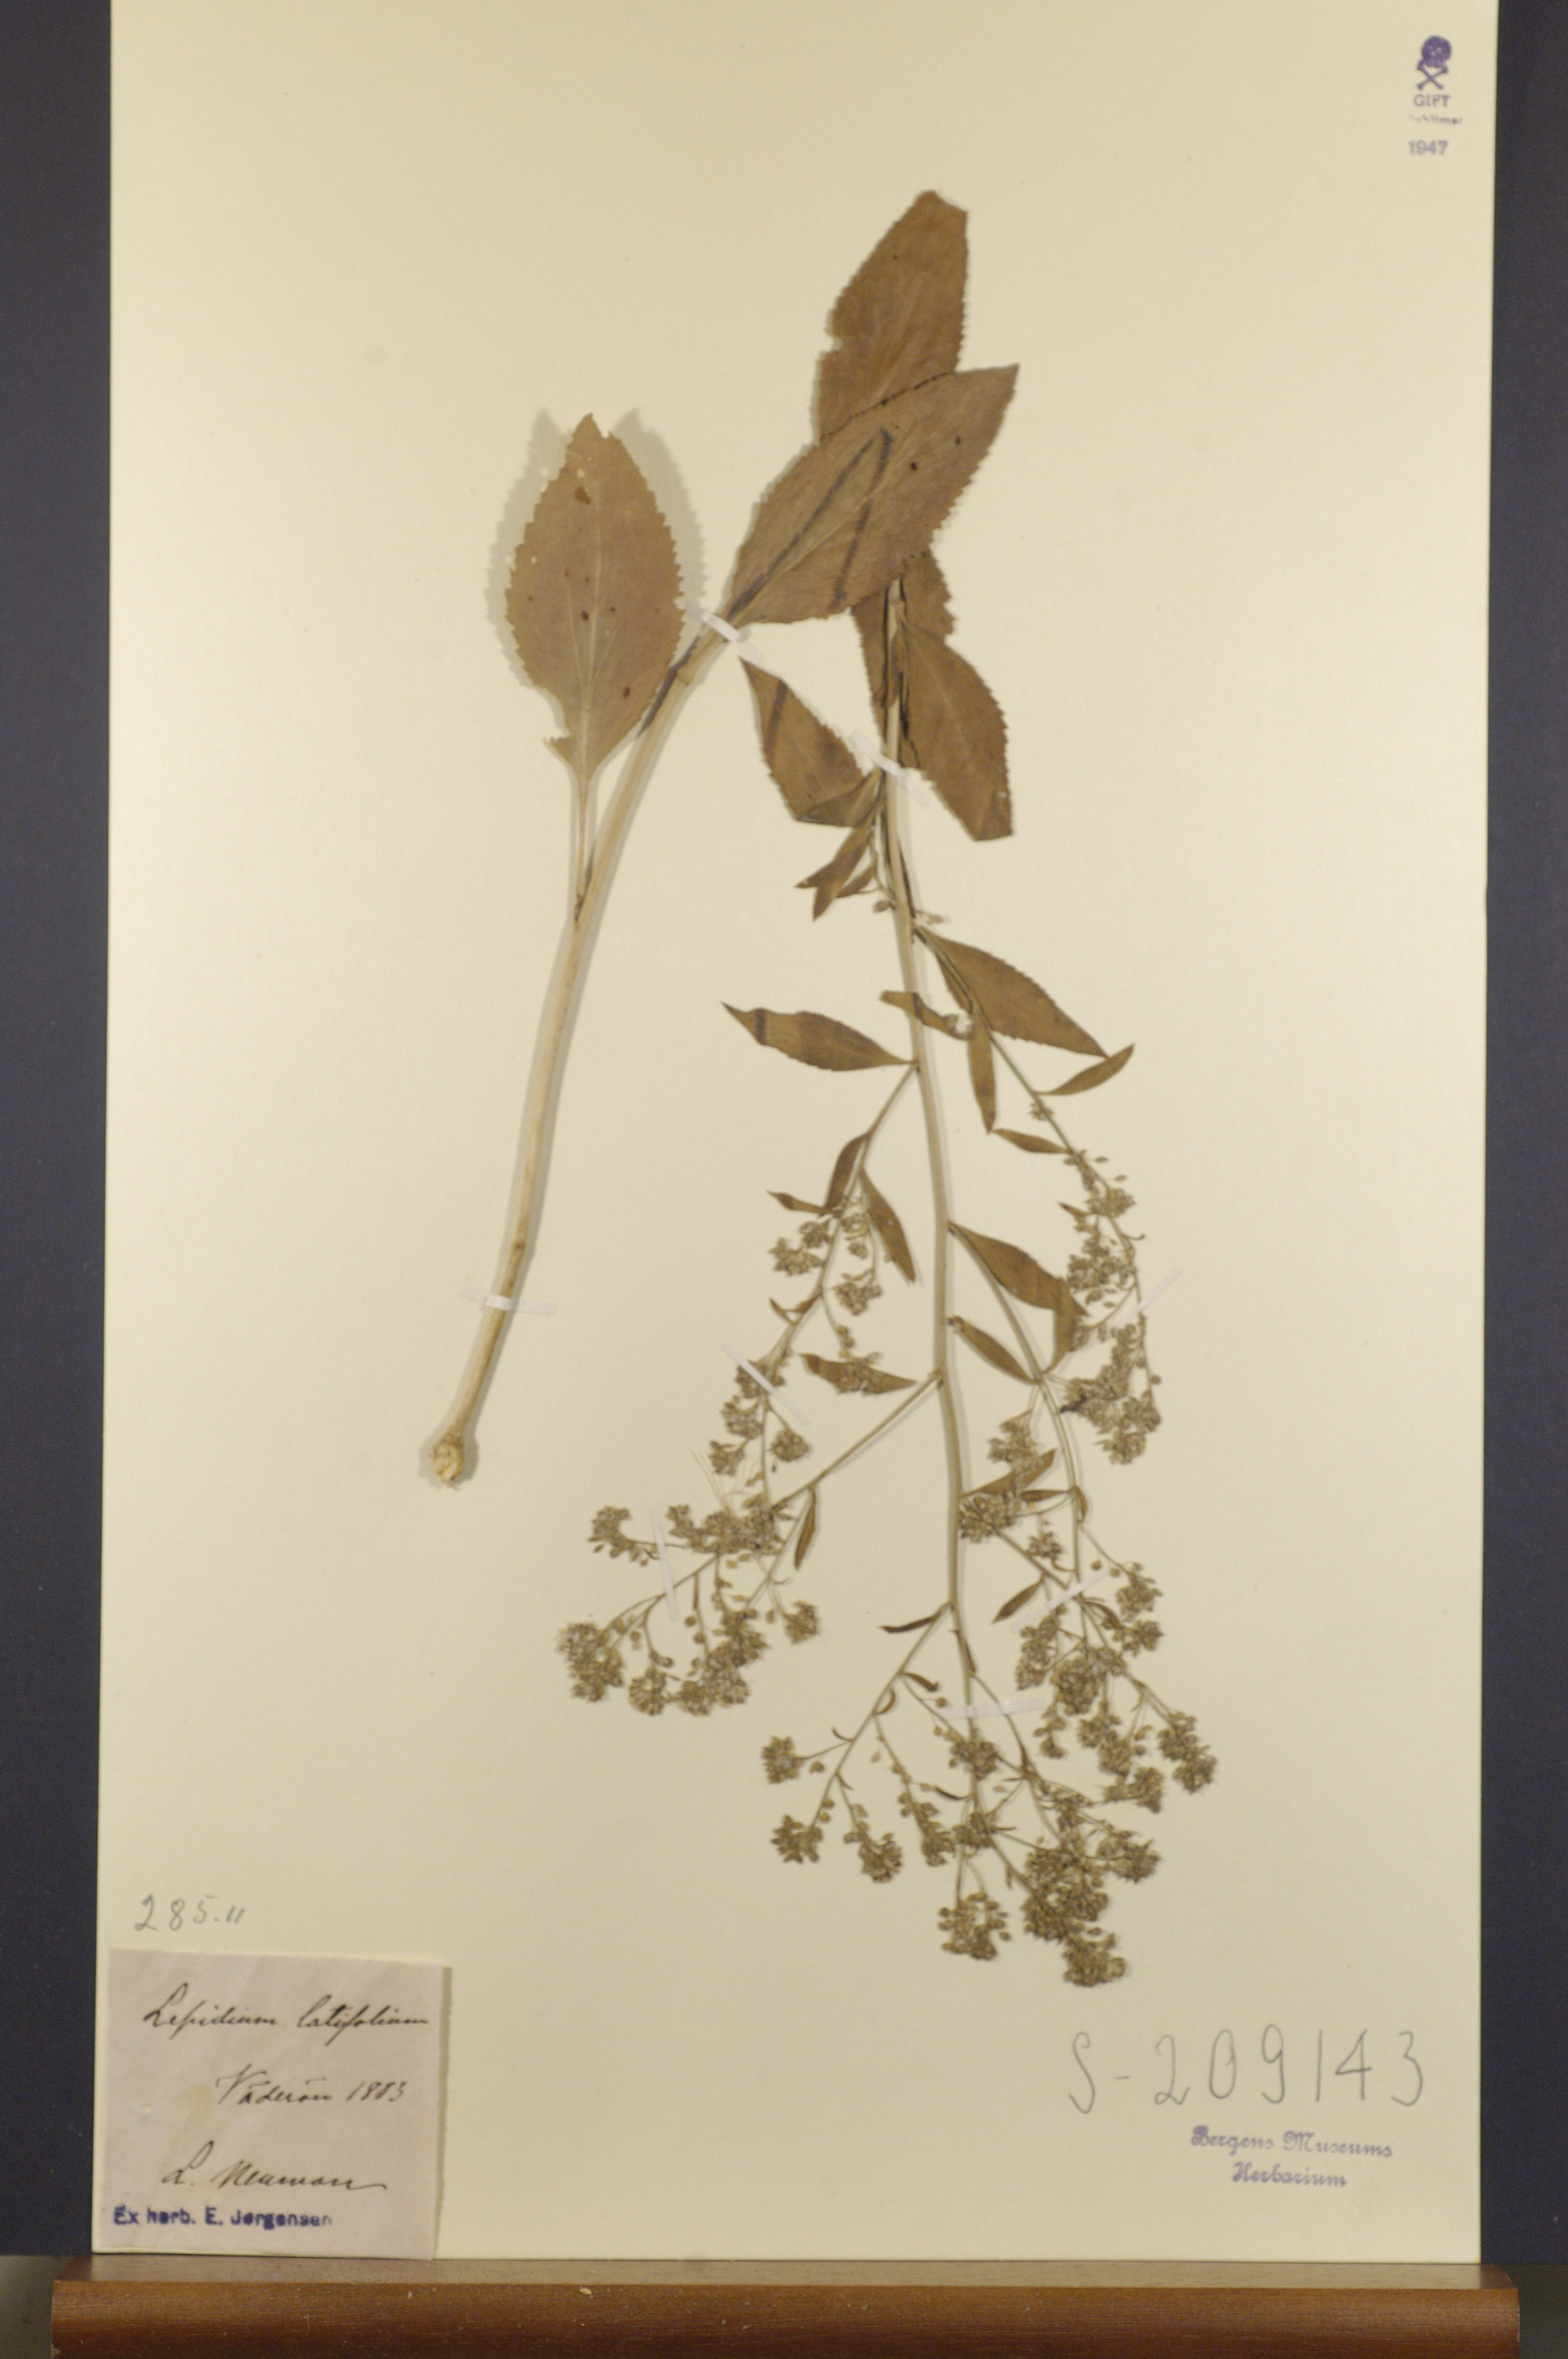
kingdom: Plantae
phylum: Tracheophyta
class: Magnoliopsida
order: Brassicales
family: Brassicaceae
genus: Lepidium
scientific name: Lepidium latifolium
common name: Dittander
